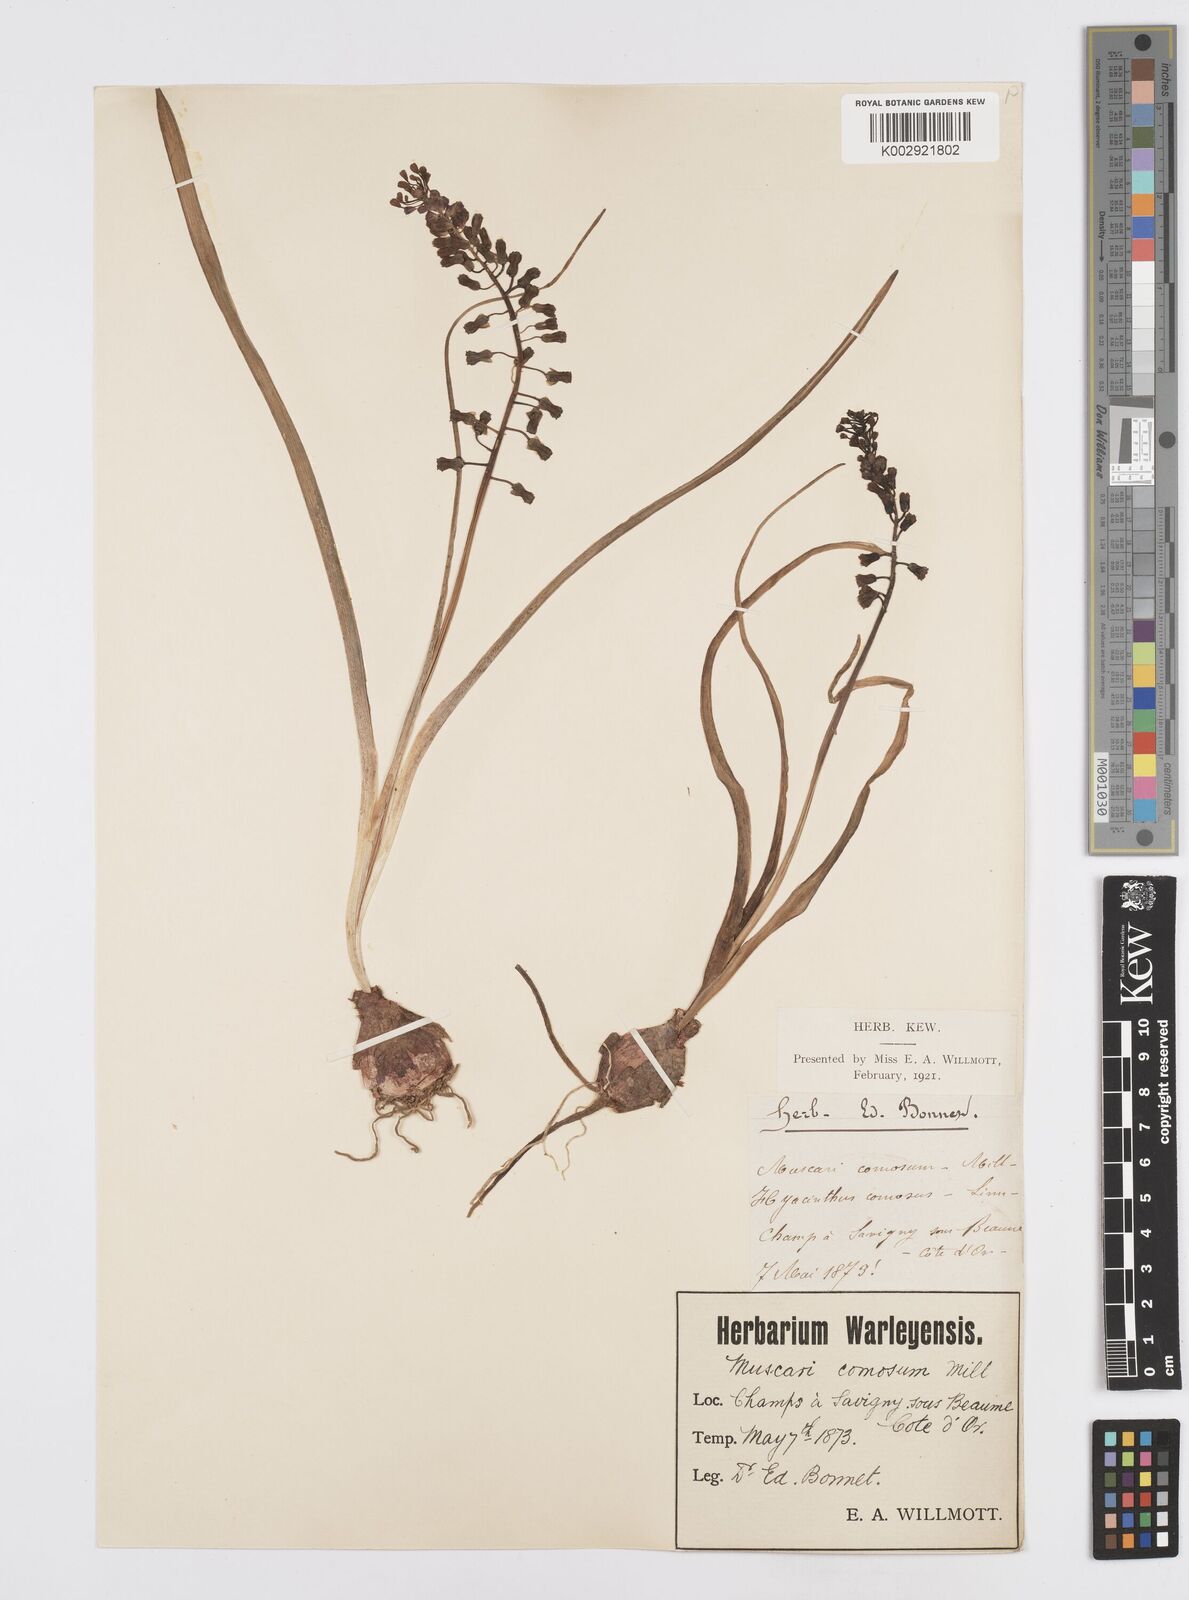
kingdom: Plantae
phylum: Tracheophyta
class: Liliopsida
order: Asparagales
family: Asparagaceae
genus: Muscari
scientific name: Muscari comosum
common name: Tassel hyacinth
